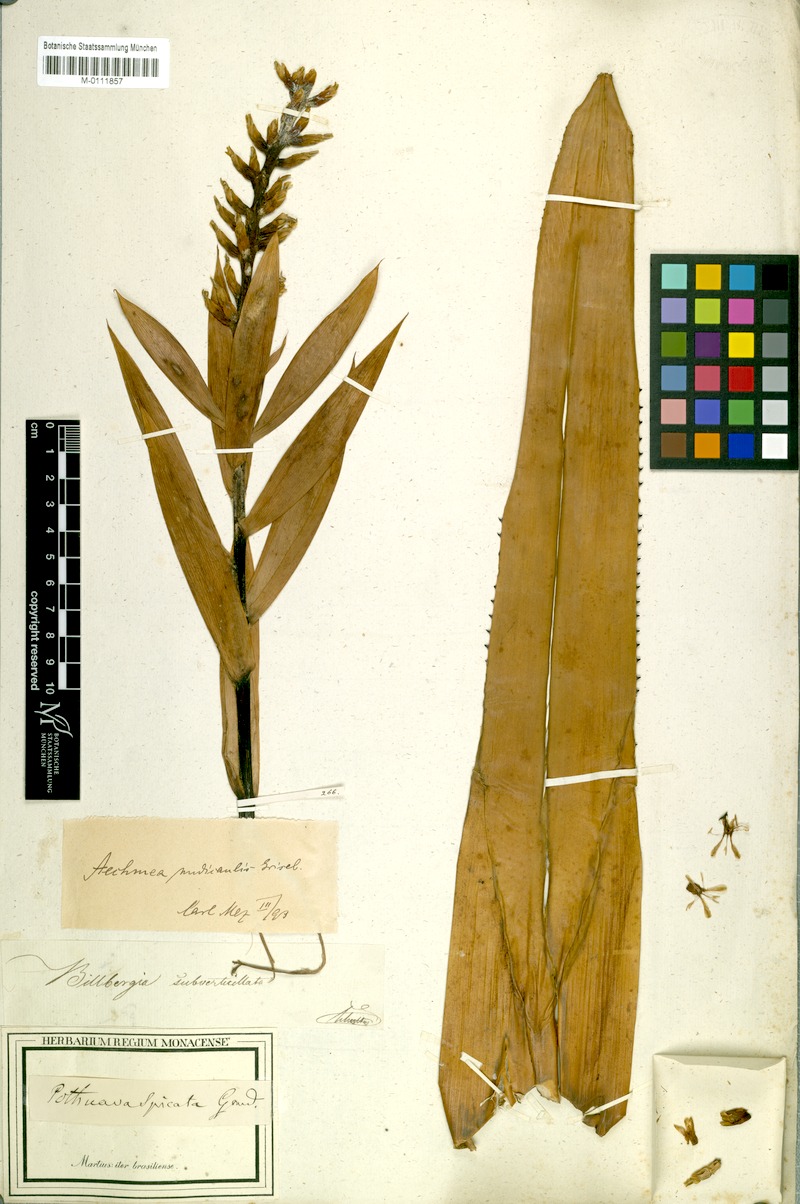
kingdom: Plantae
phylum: Tracheophyta
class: Liliopsida
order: Poales
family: Bromeliaceae
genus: Aechmea
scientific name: Aechmea nudicaulis
